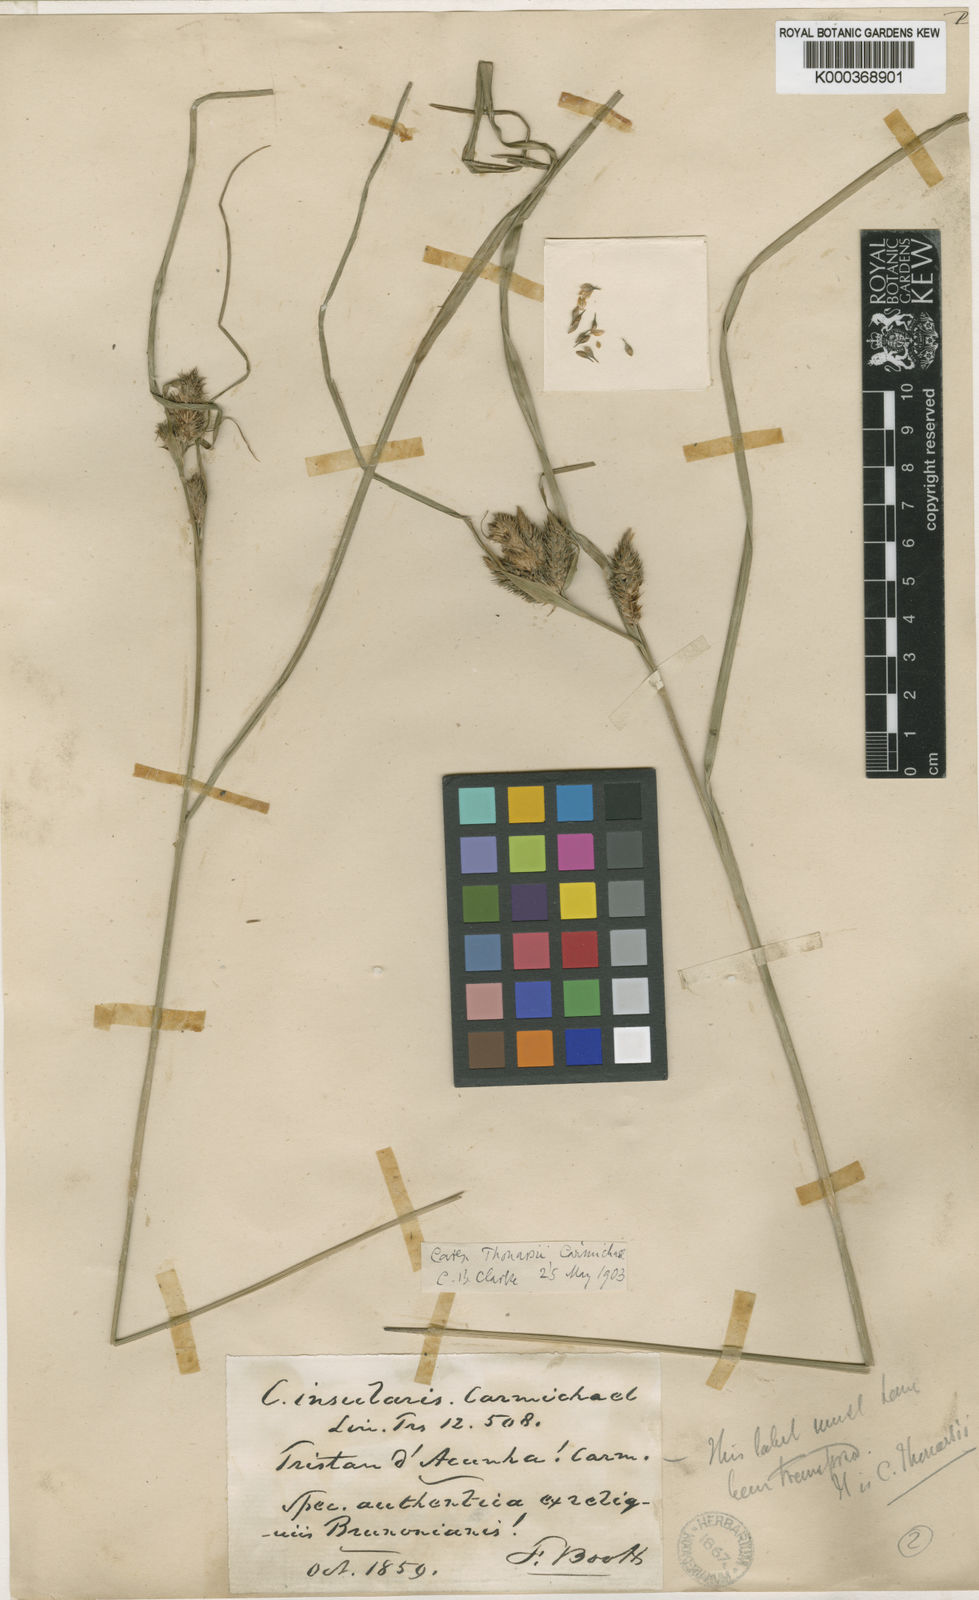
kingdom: Plantae
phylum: Tracheophyta
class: Liliopsida
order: Poales
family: Cyperaceae
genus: Carex
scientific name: Carex thouarsii
